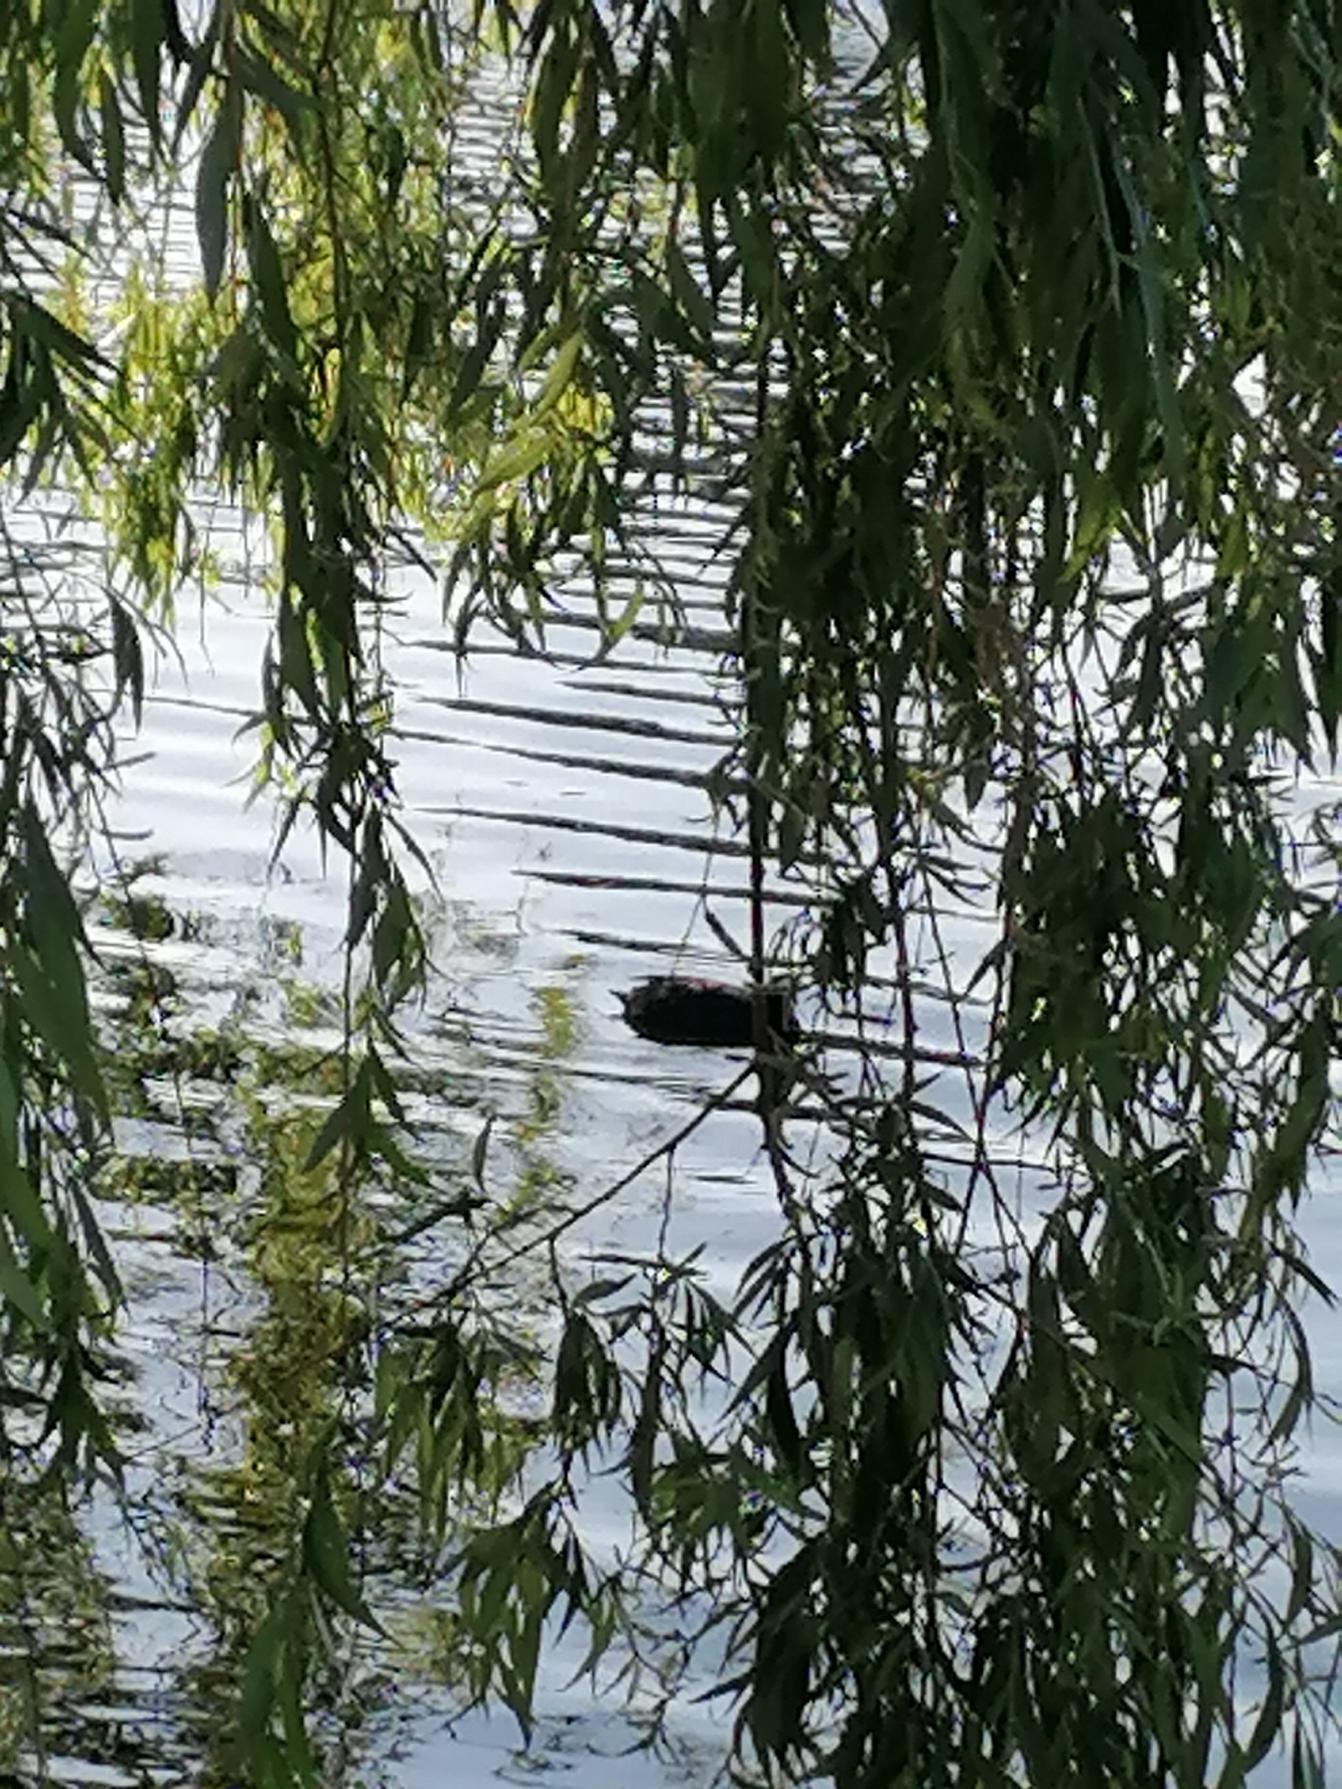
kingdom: Animalia
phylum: Chordata
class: Aves
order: Gruiformes
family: Rallidae
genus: Fulica
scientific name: Fulica atra
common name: Blishøne
